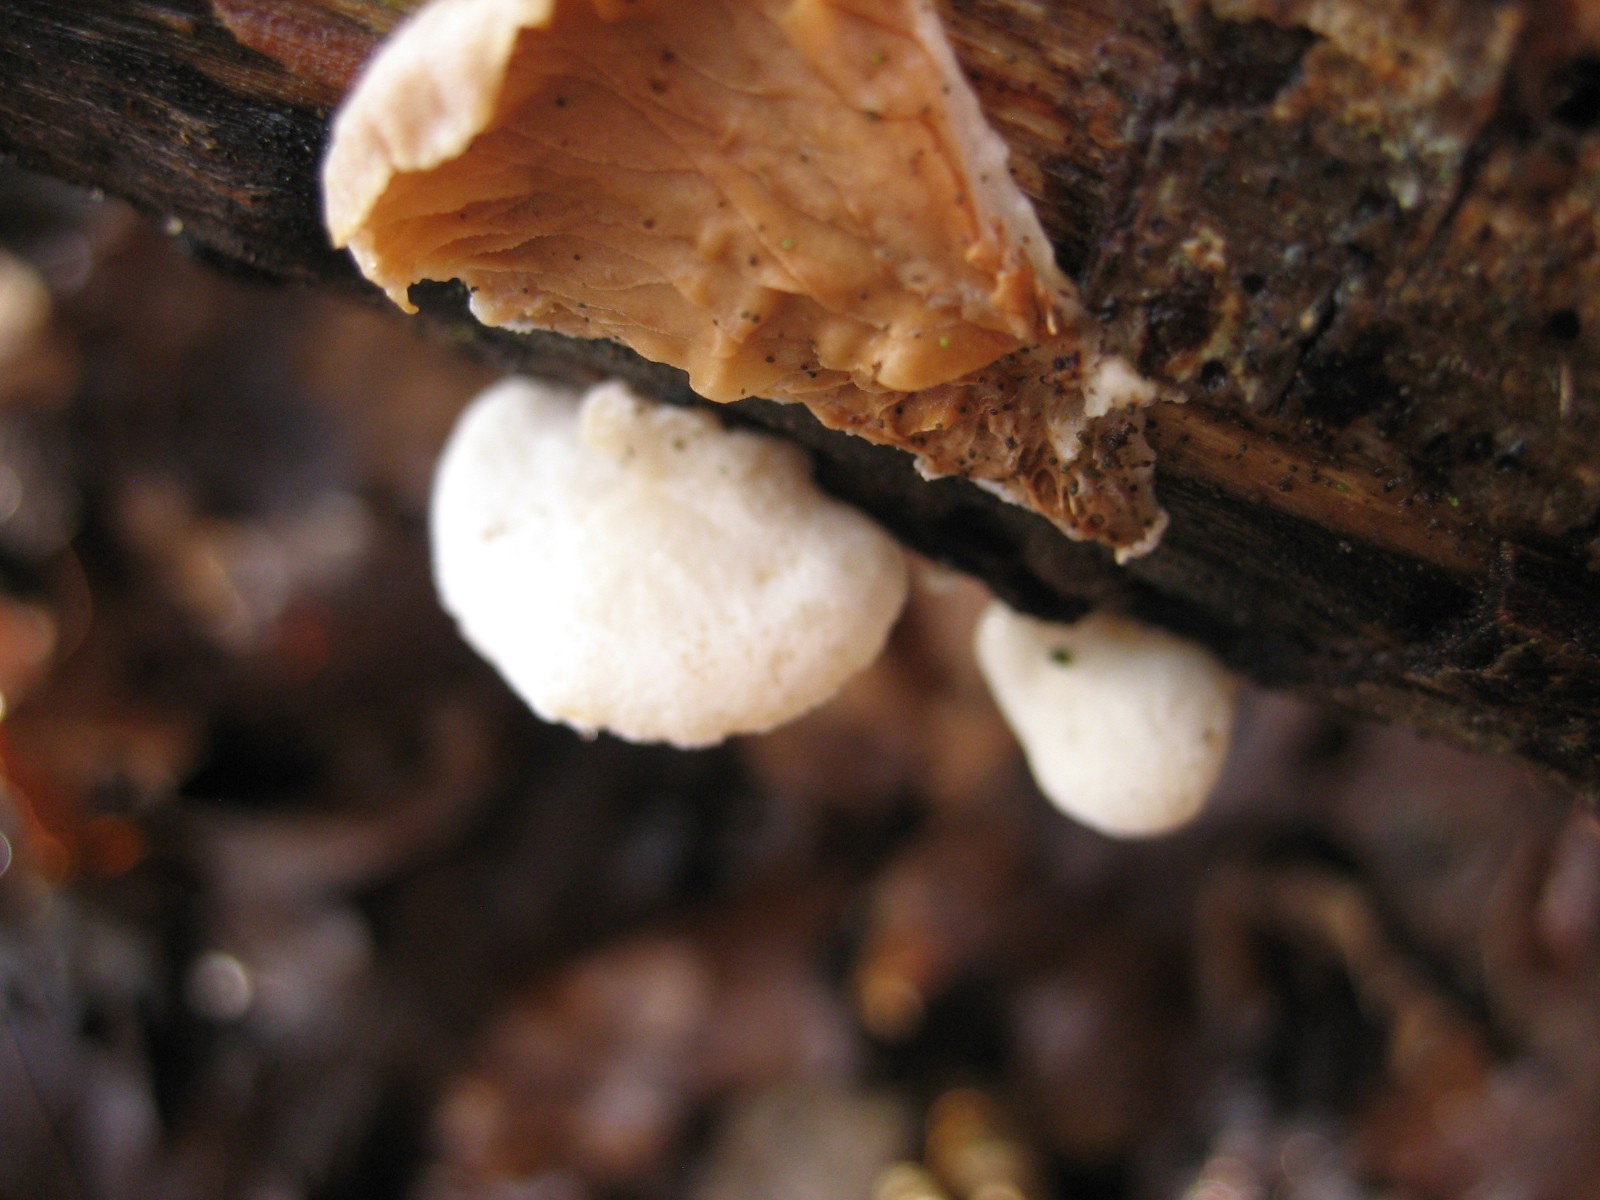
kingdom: Fungi
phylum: Basidiomycota
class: Agaricomycetes
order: Agaricales
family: Crepidotaceae
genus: Crepidotus
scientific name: Crepidotus
